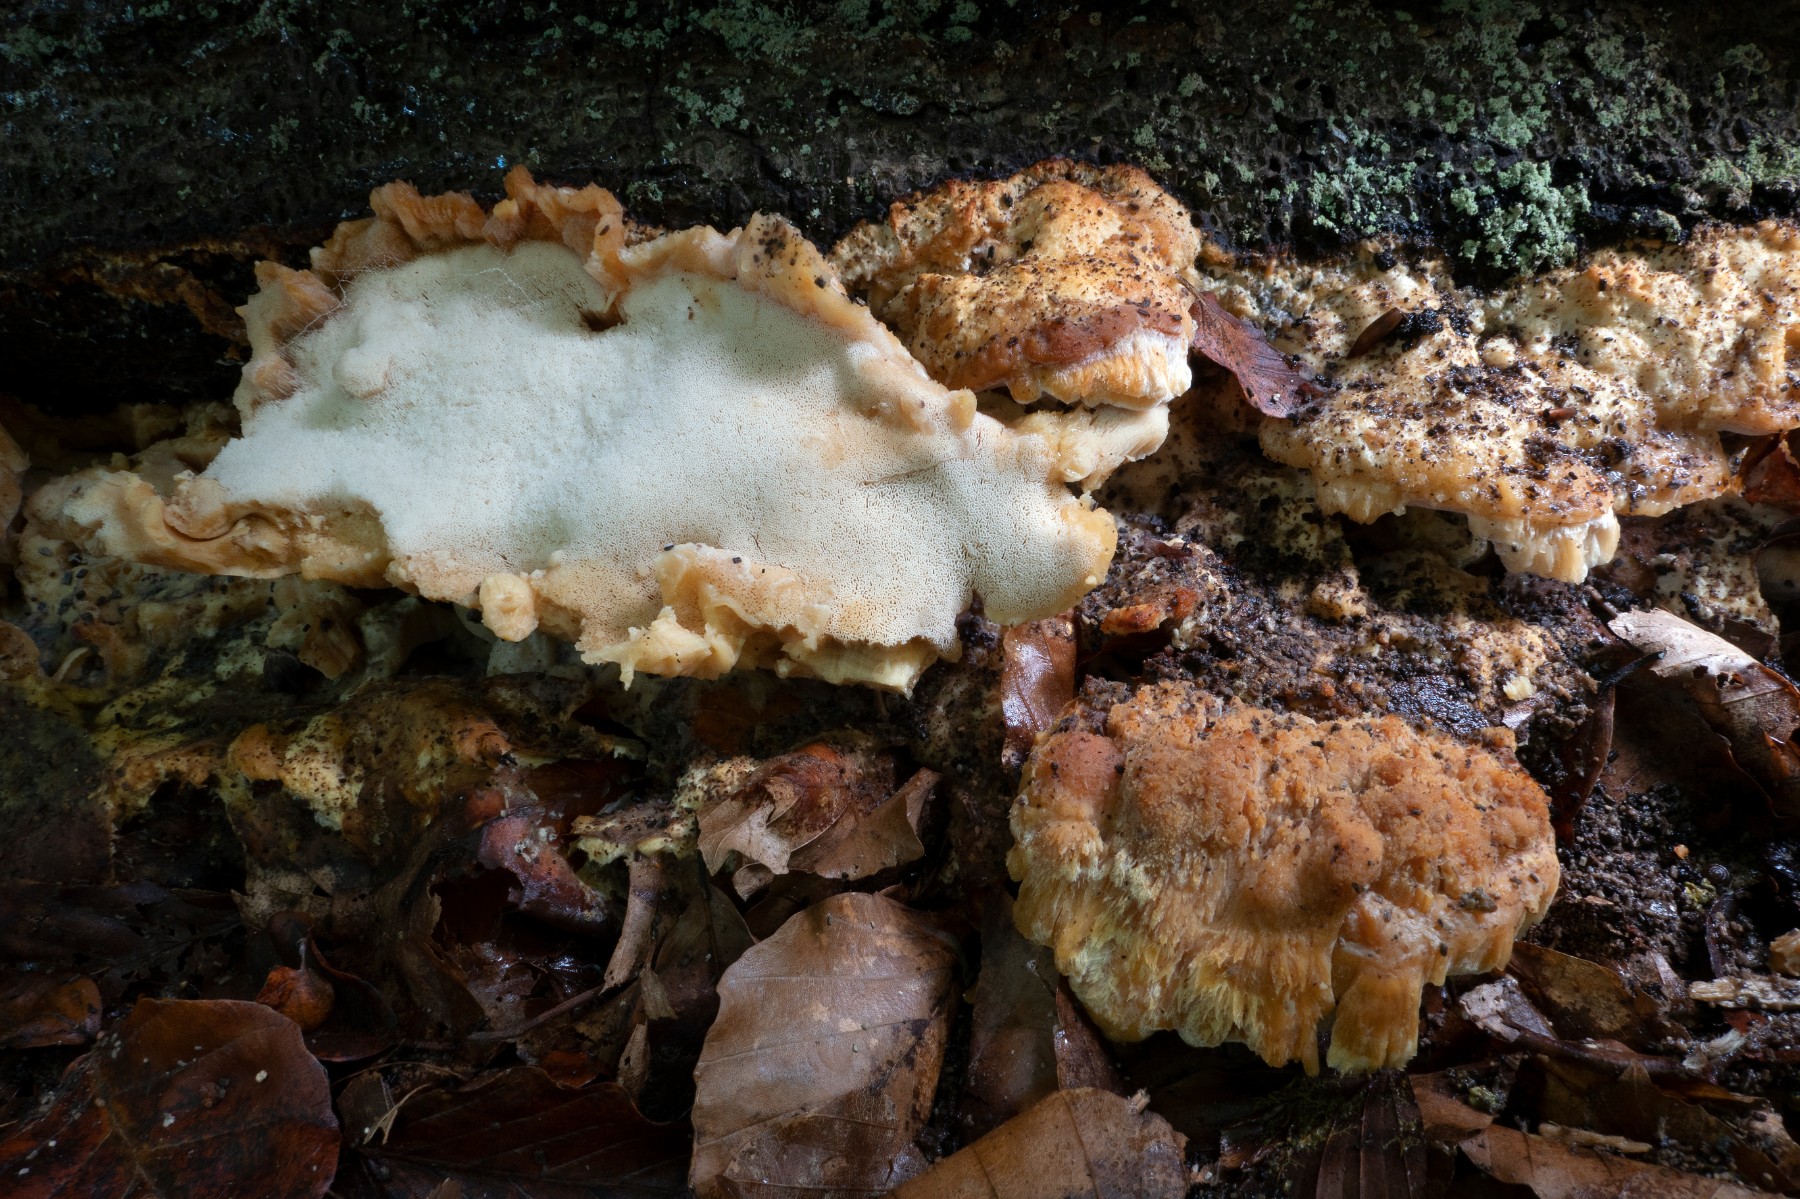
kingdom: Fungi
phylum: Basidiomycota
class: Agaricomycetes
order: Polyporales
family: Steccherinaceae
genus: Antrodiella
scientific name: Antrodiella mentschulensis
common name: abrikosporesvamp
